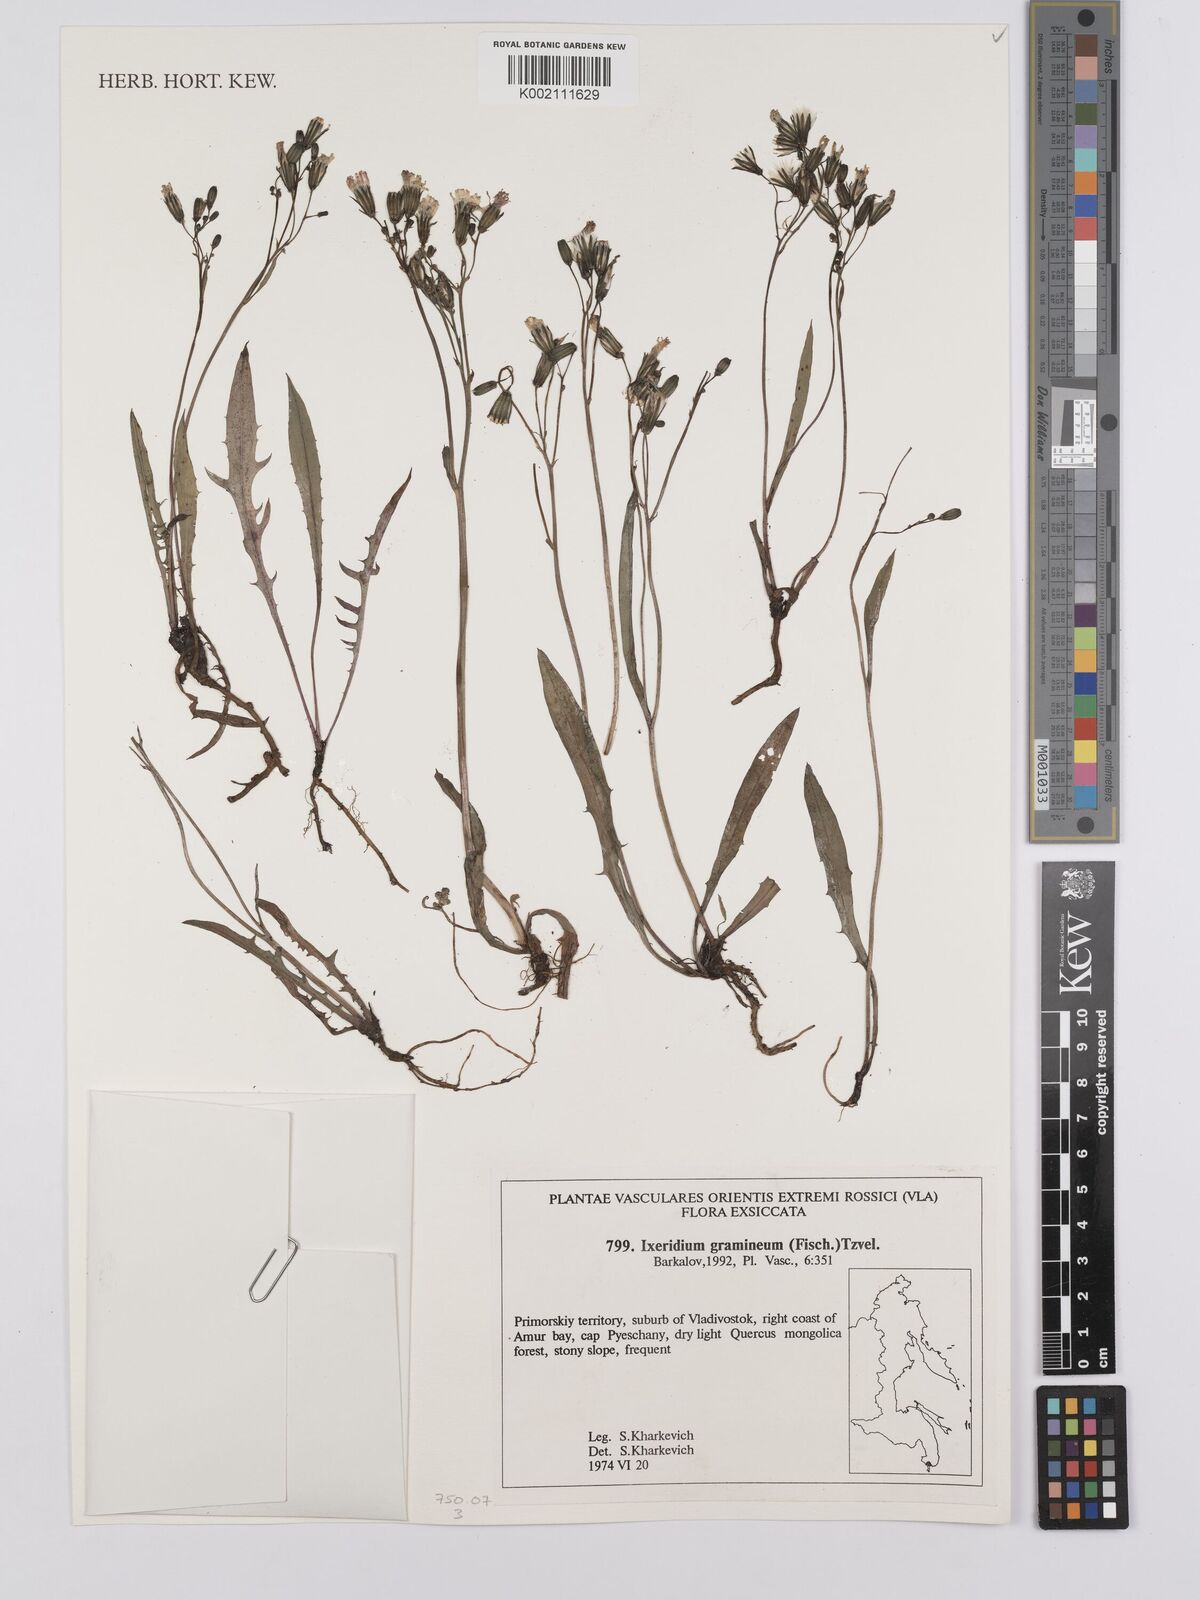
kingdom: Plantae
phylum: Tracheophyta
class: Magnoliopsida
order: Asterales
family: Asteraceae
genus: Ixeridium
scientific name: Ixeridium
